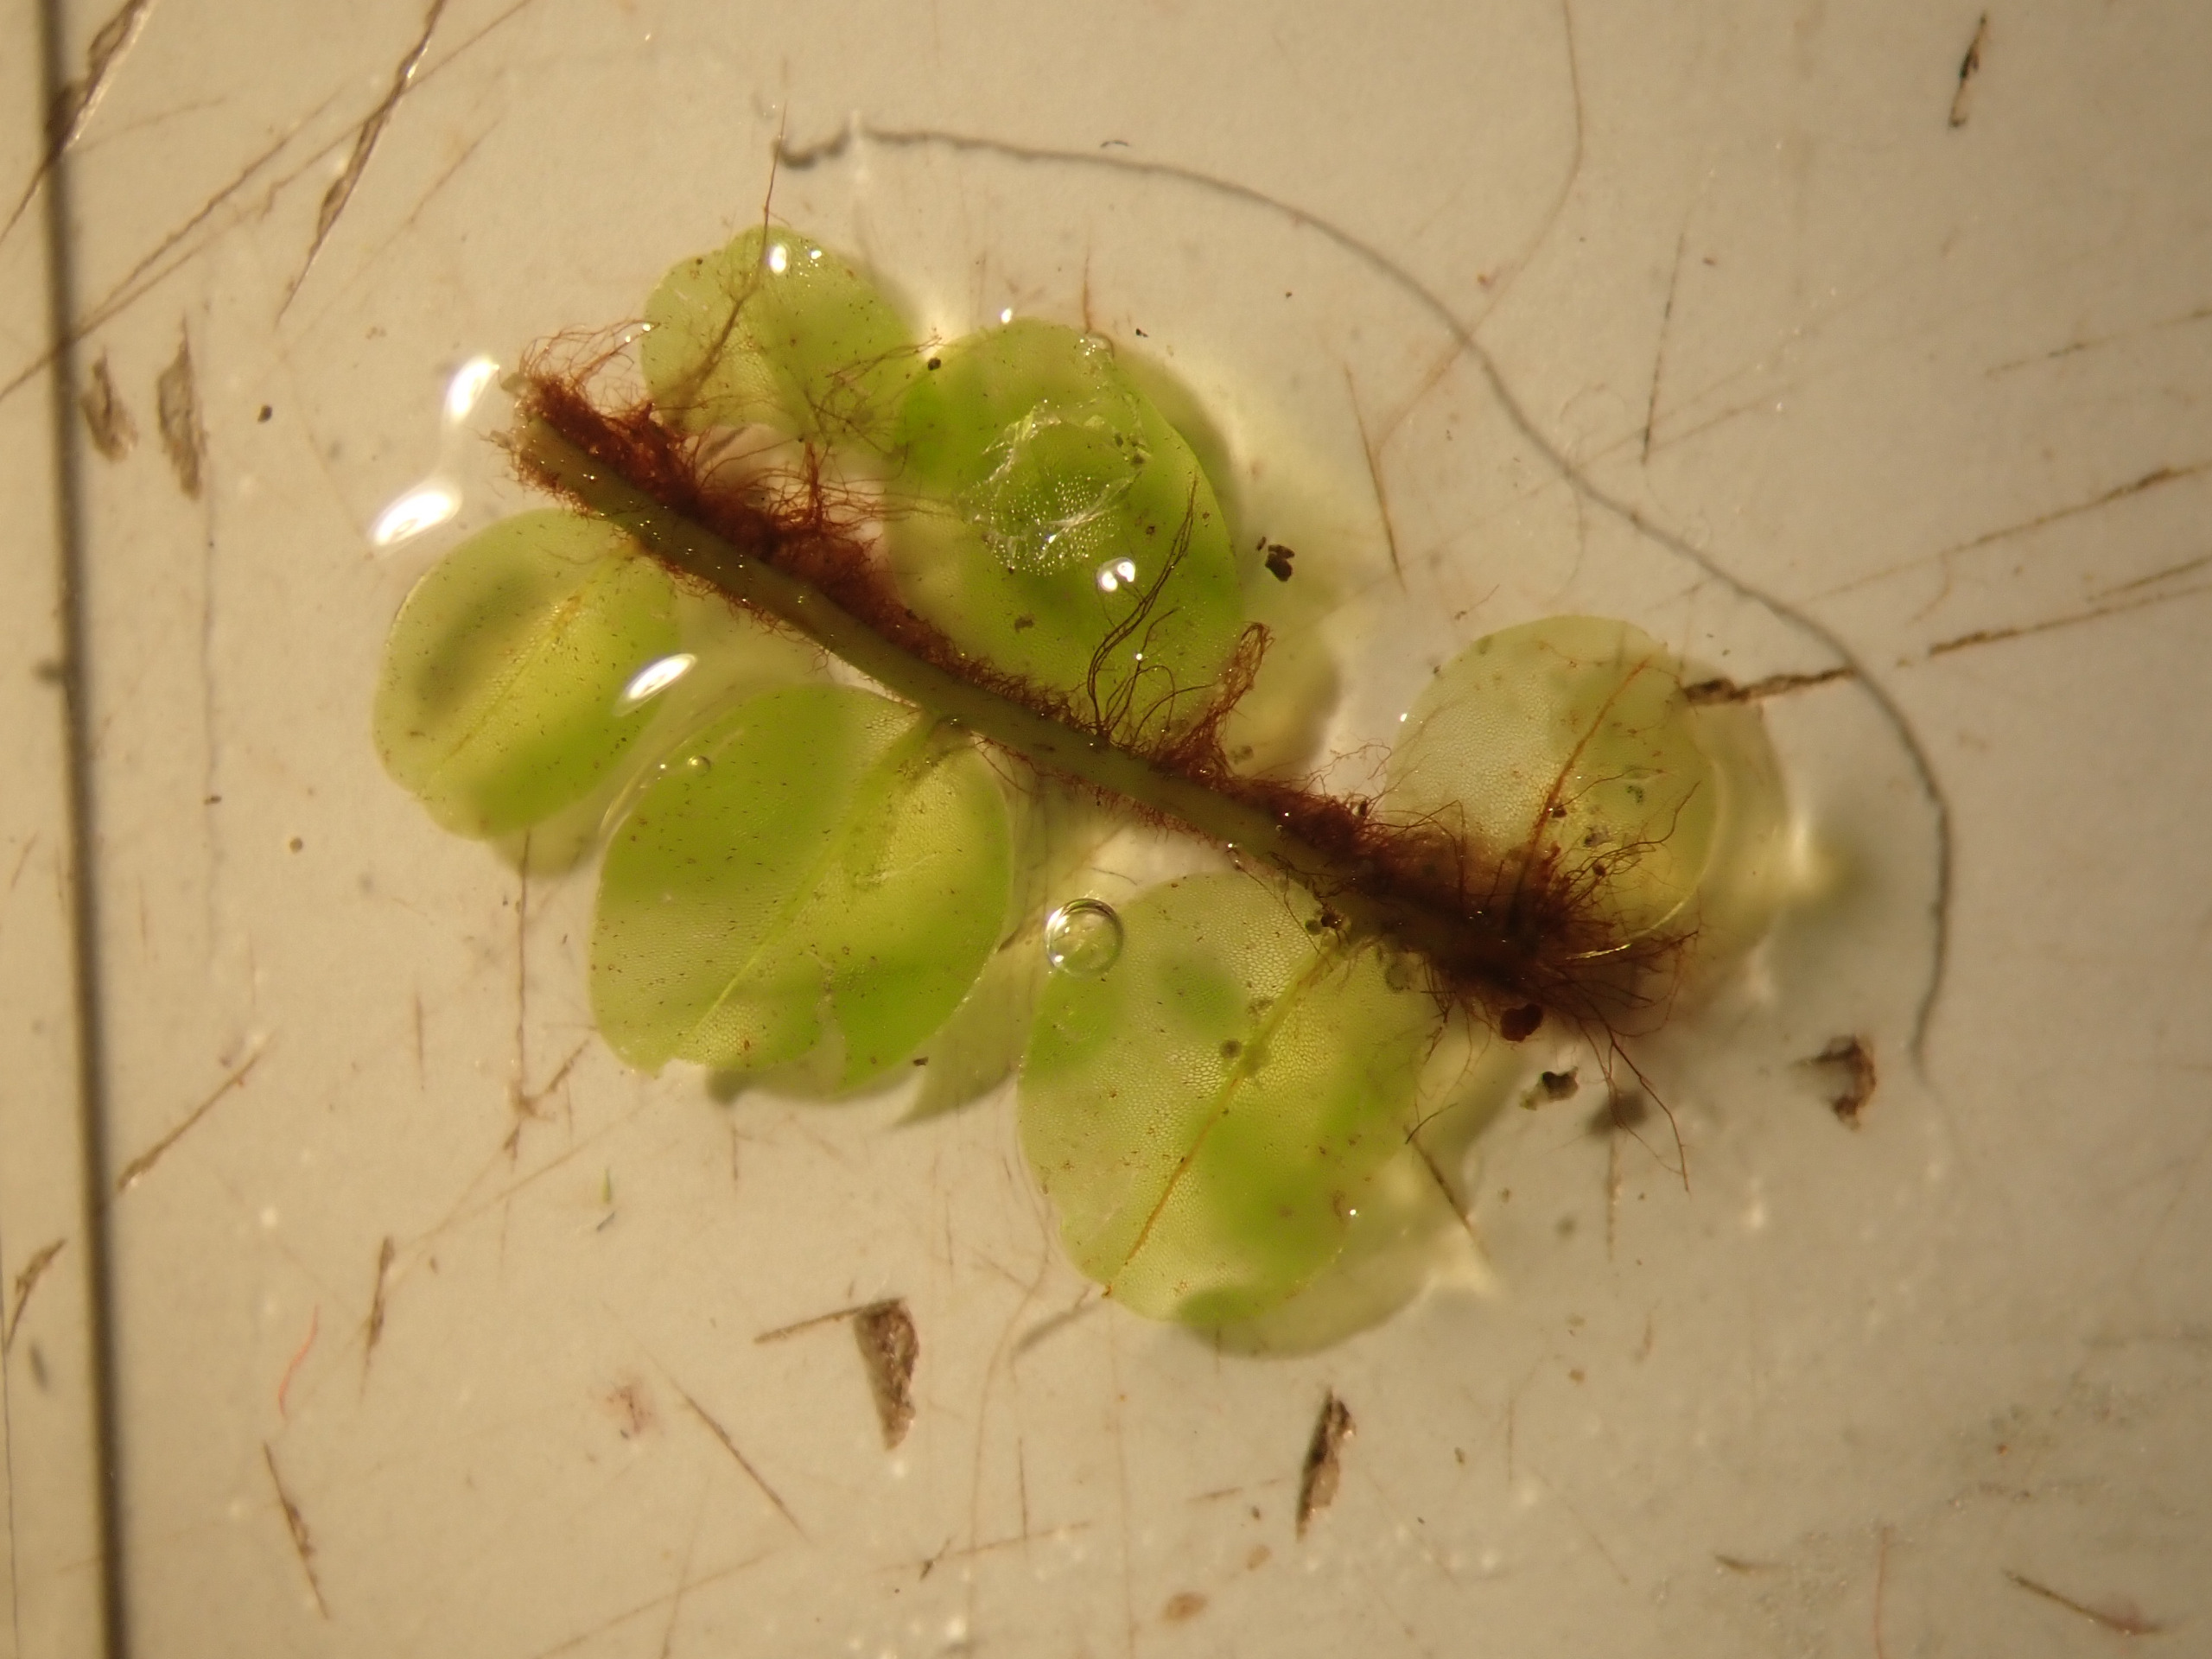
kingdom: Plantae
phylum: Bryophyta
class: Bryopsida
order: Bryales
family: Mniaceae
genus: Plagiomnium
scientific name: Plagiomnium ellipticum
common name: Mose-krybstjerne
